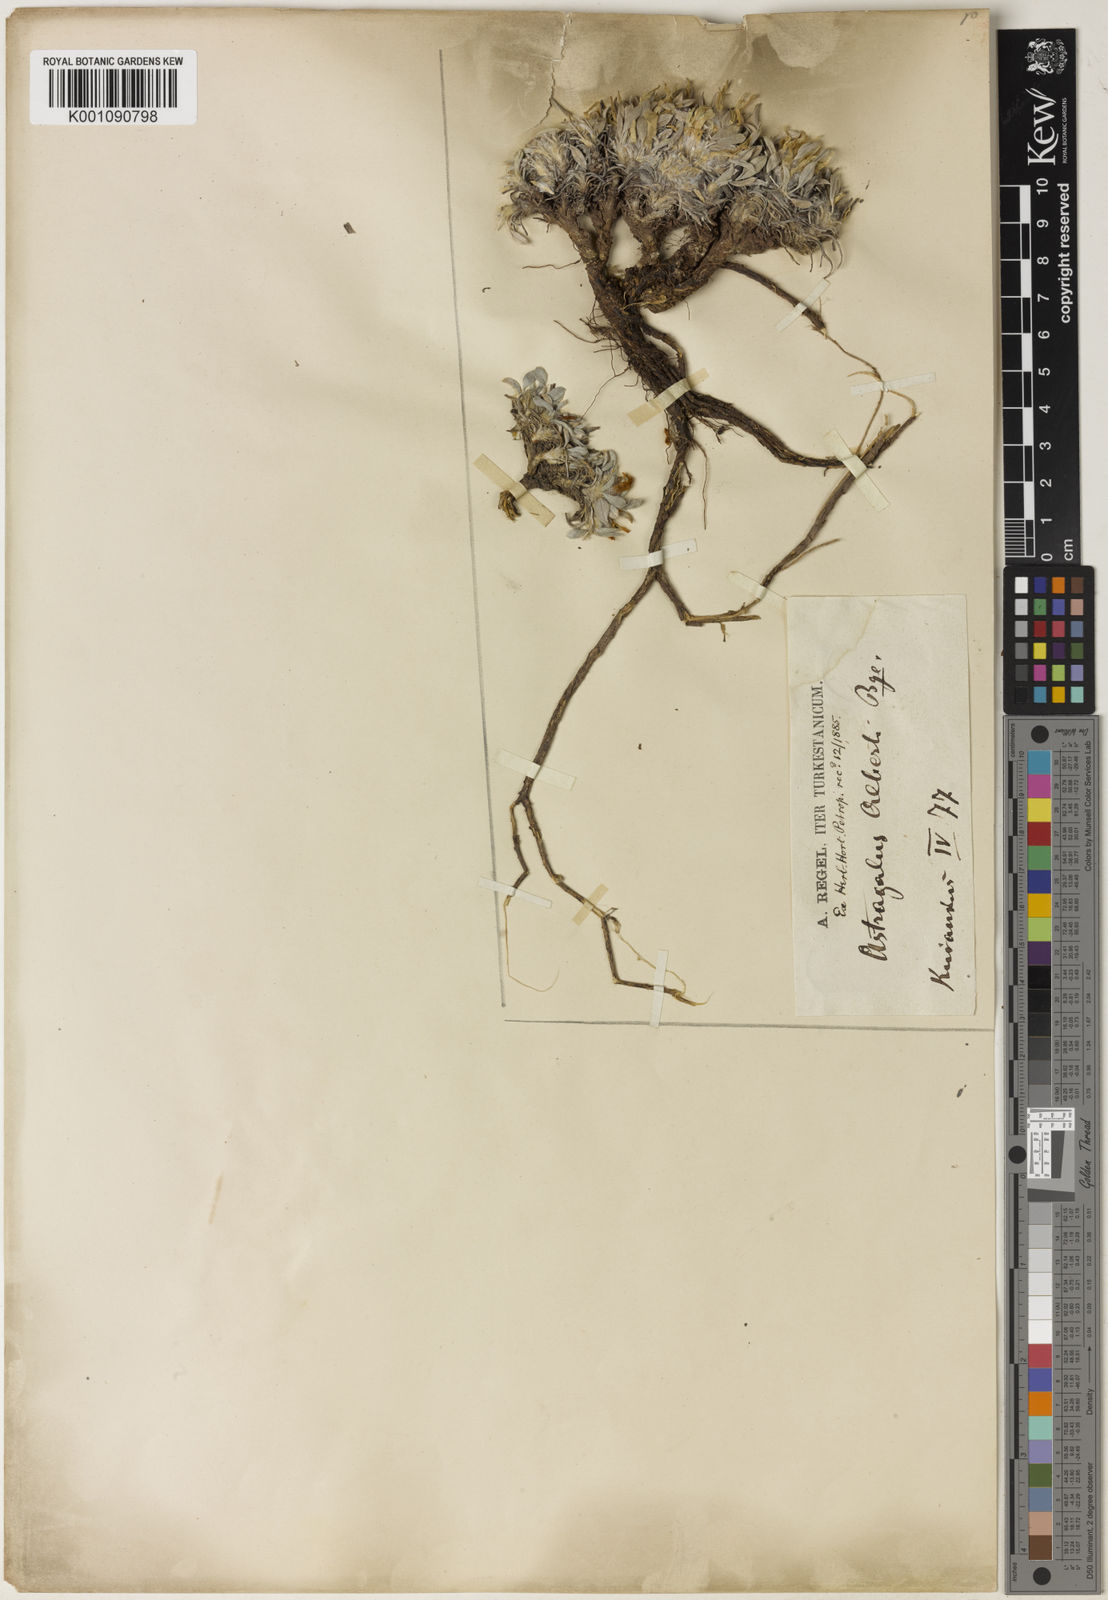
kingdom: Plantae
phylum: Tracheophyta
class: Magnoliopsida
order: Fabales
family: Fabaceae
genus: Astragalus
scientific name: Astragalus
